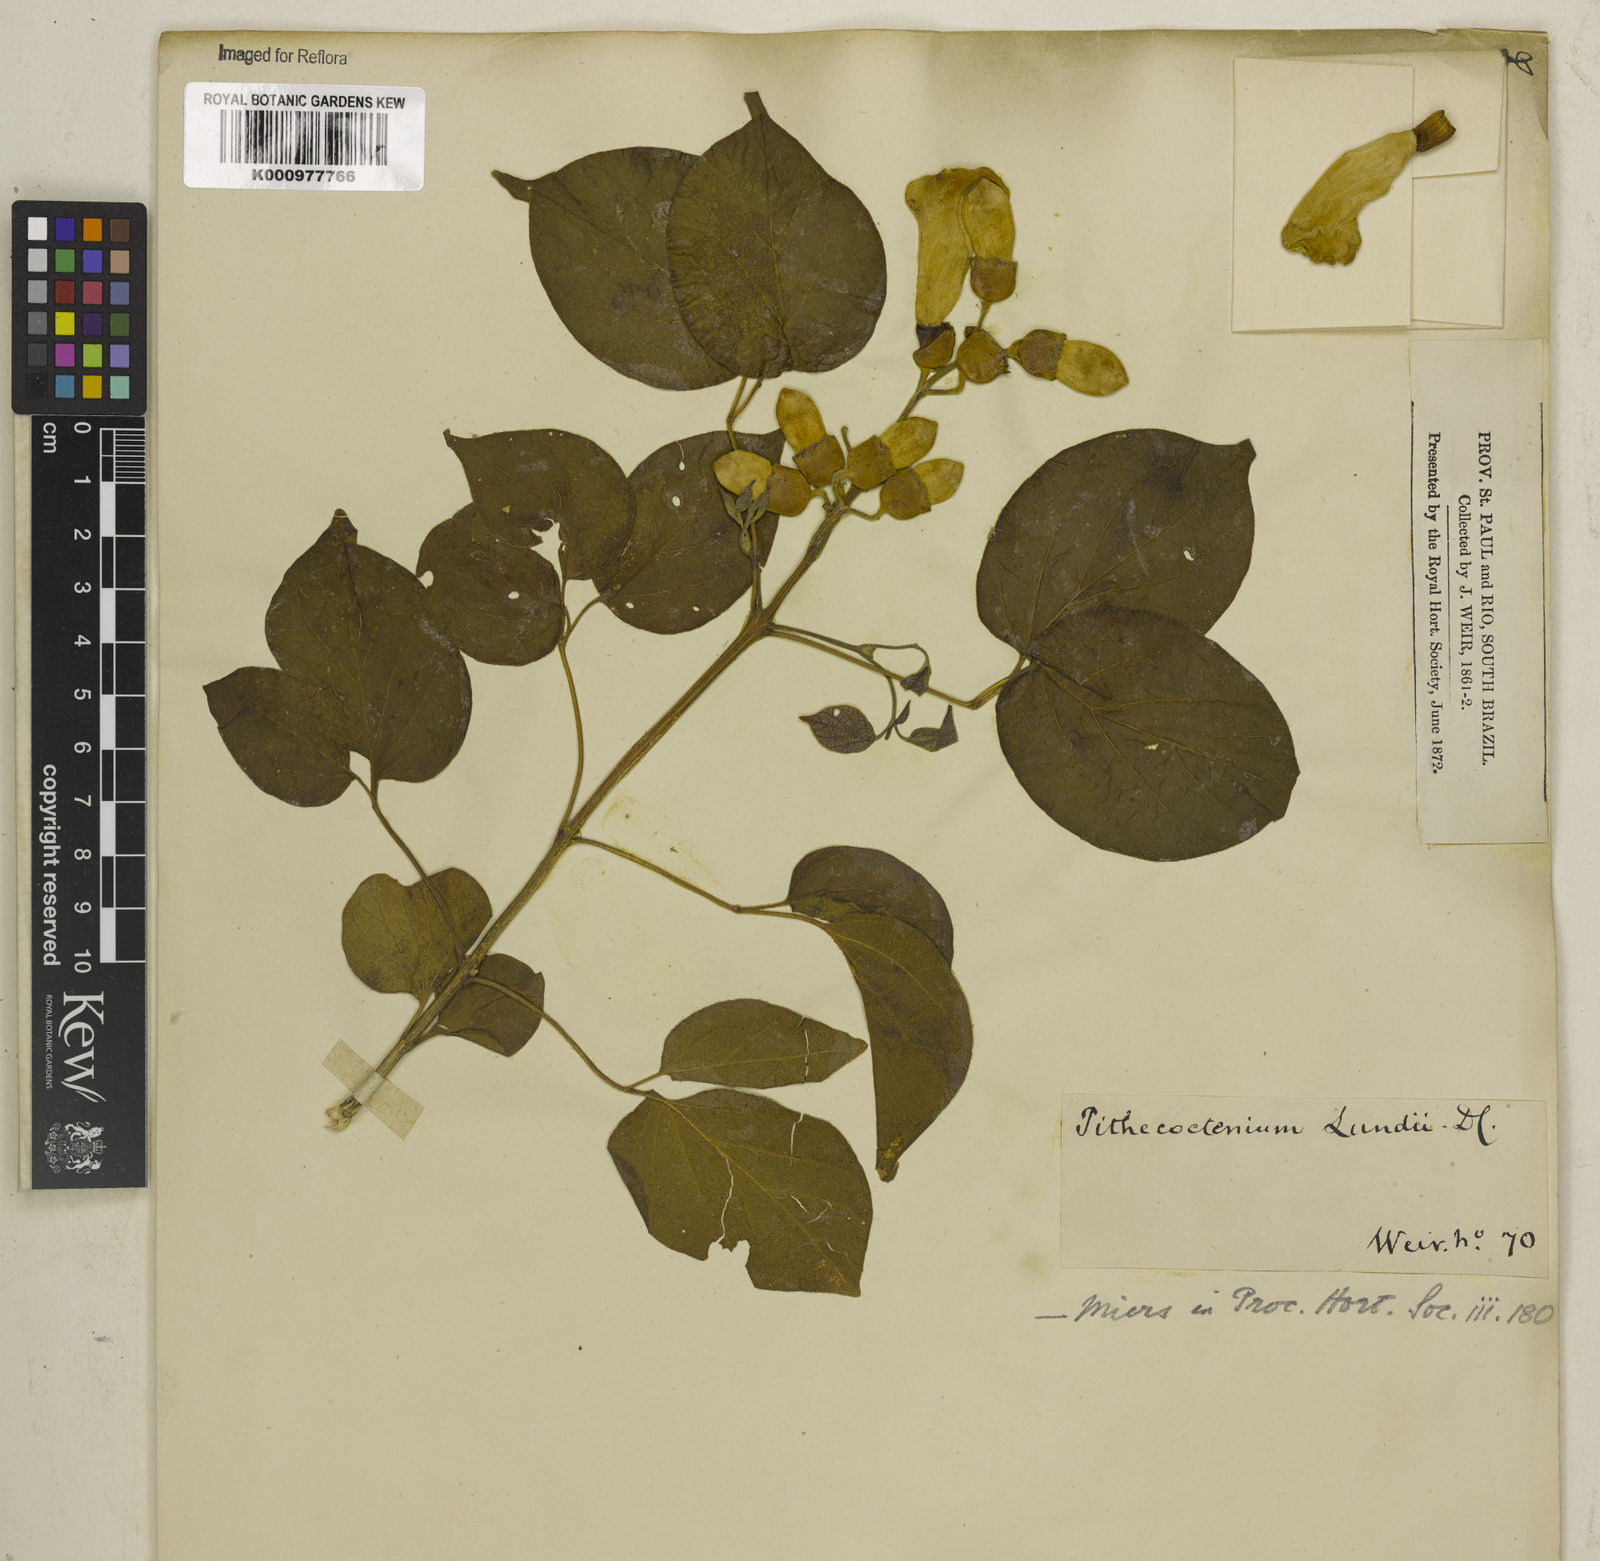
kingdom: Plantae
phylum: Tracheophyta
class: Magnoliopsida
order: Lamiales
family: Bignoniaceae
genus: Amphilophium
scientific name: Amphilophium crucigerum
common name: Monkey comb
